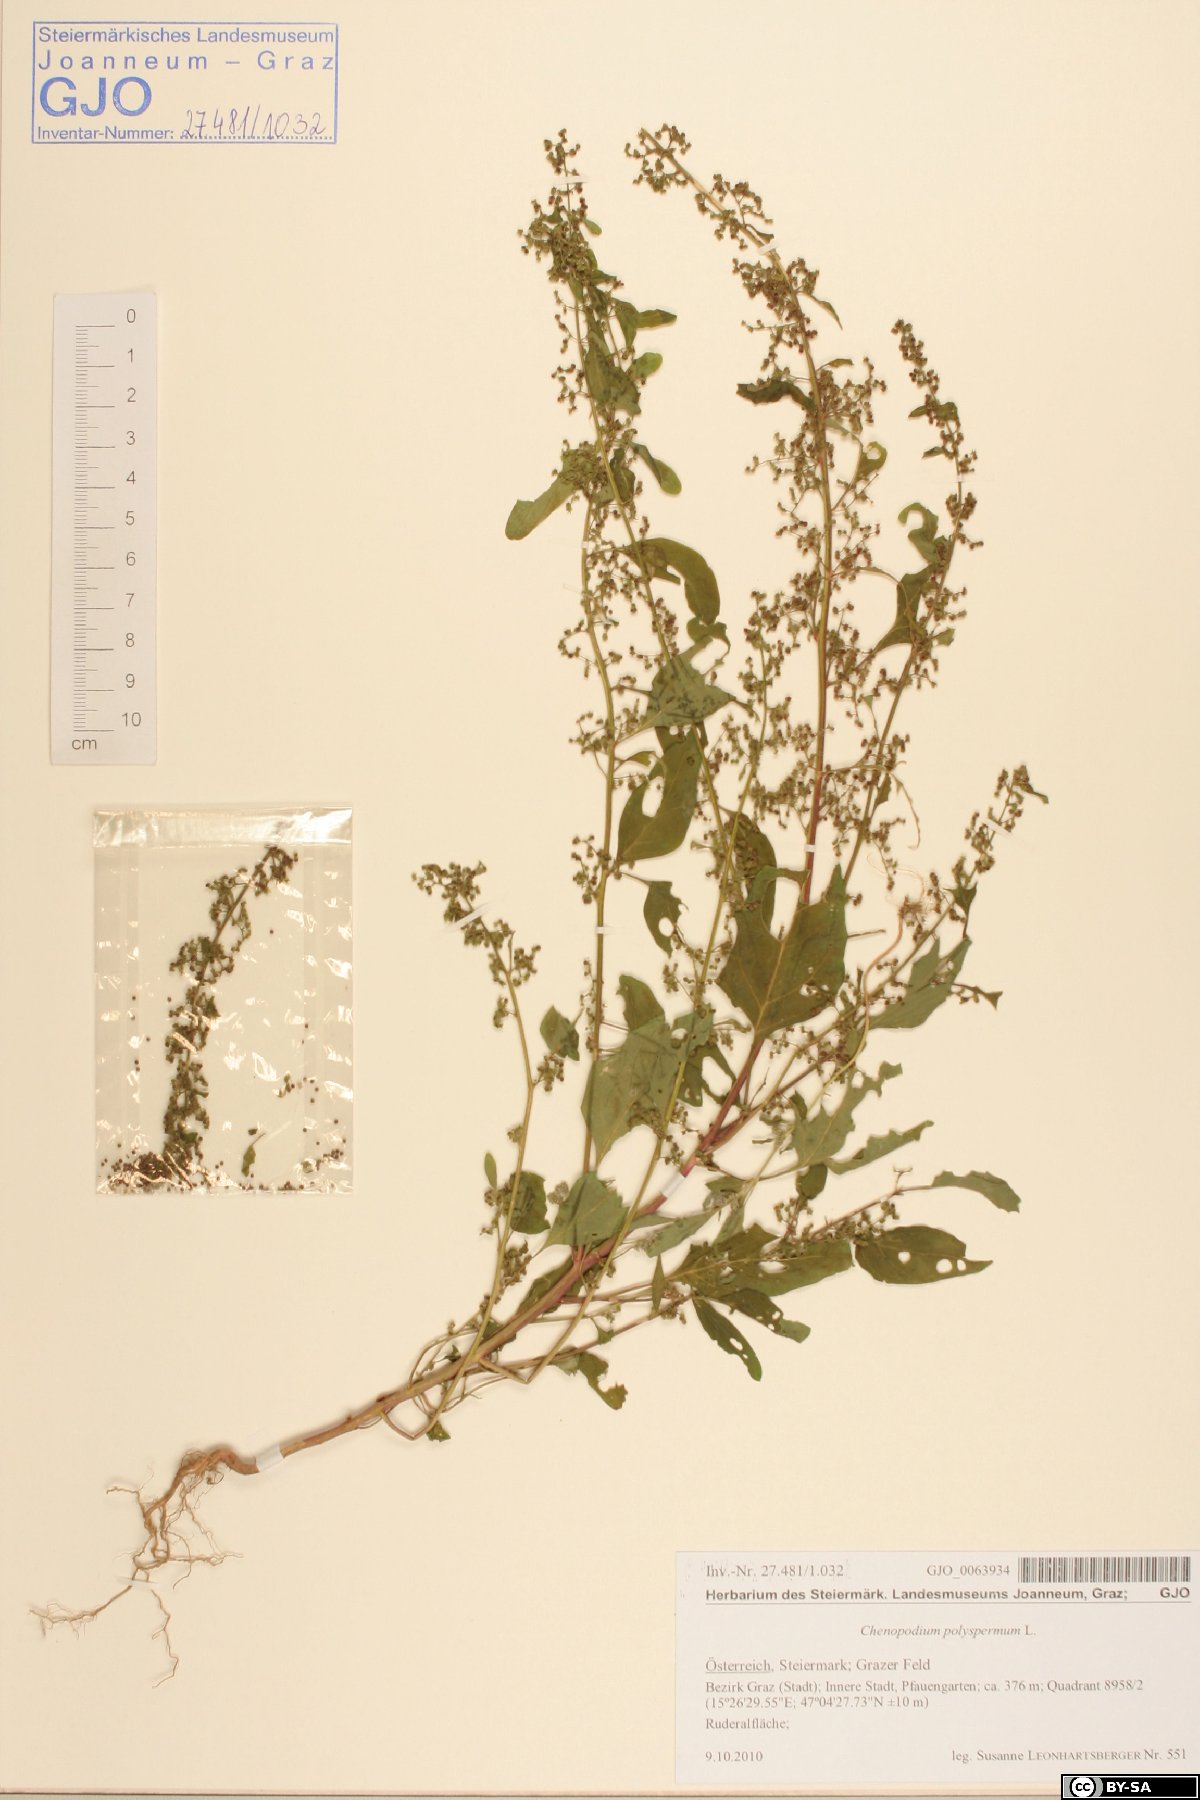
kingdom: Plantae
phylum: Tracheophyta
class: Magnoliopsida
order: Caryophyllales
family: Amaranthaceae
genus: Lipandra
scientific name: Lipandra polysperma
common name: Many-seed goosefoot
